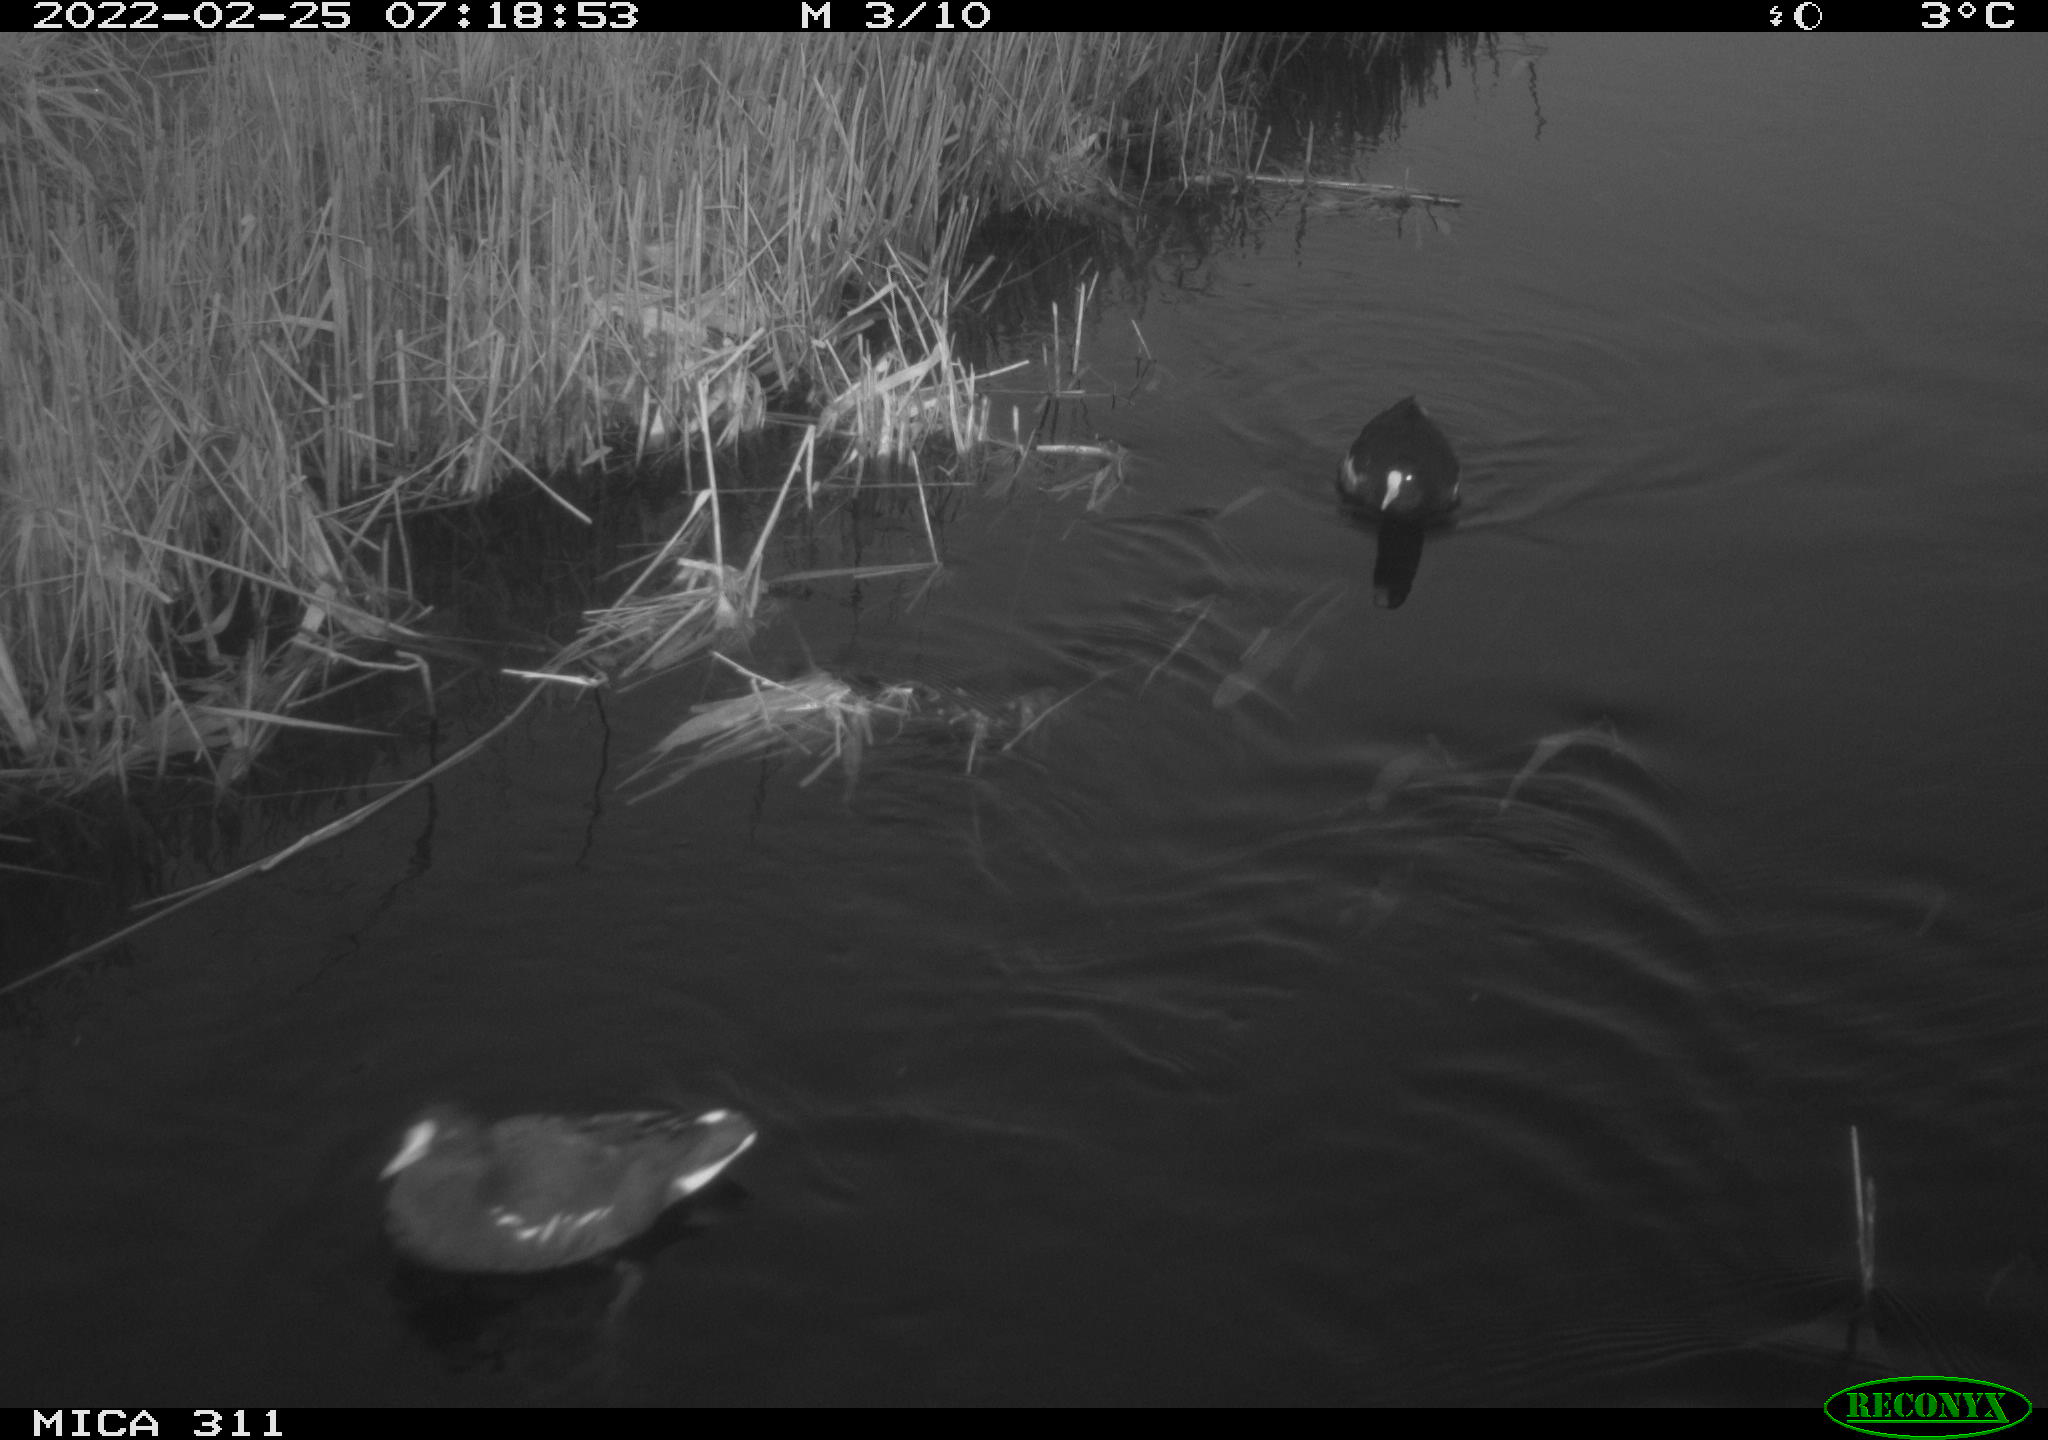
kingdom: Animalia
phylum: Chordata
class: Aves
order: Gruiformes
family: Rallidae
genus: Gallinula
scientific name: Gallinula chloropus
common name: Common moorhen
